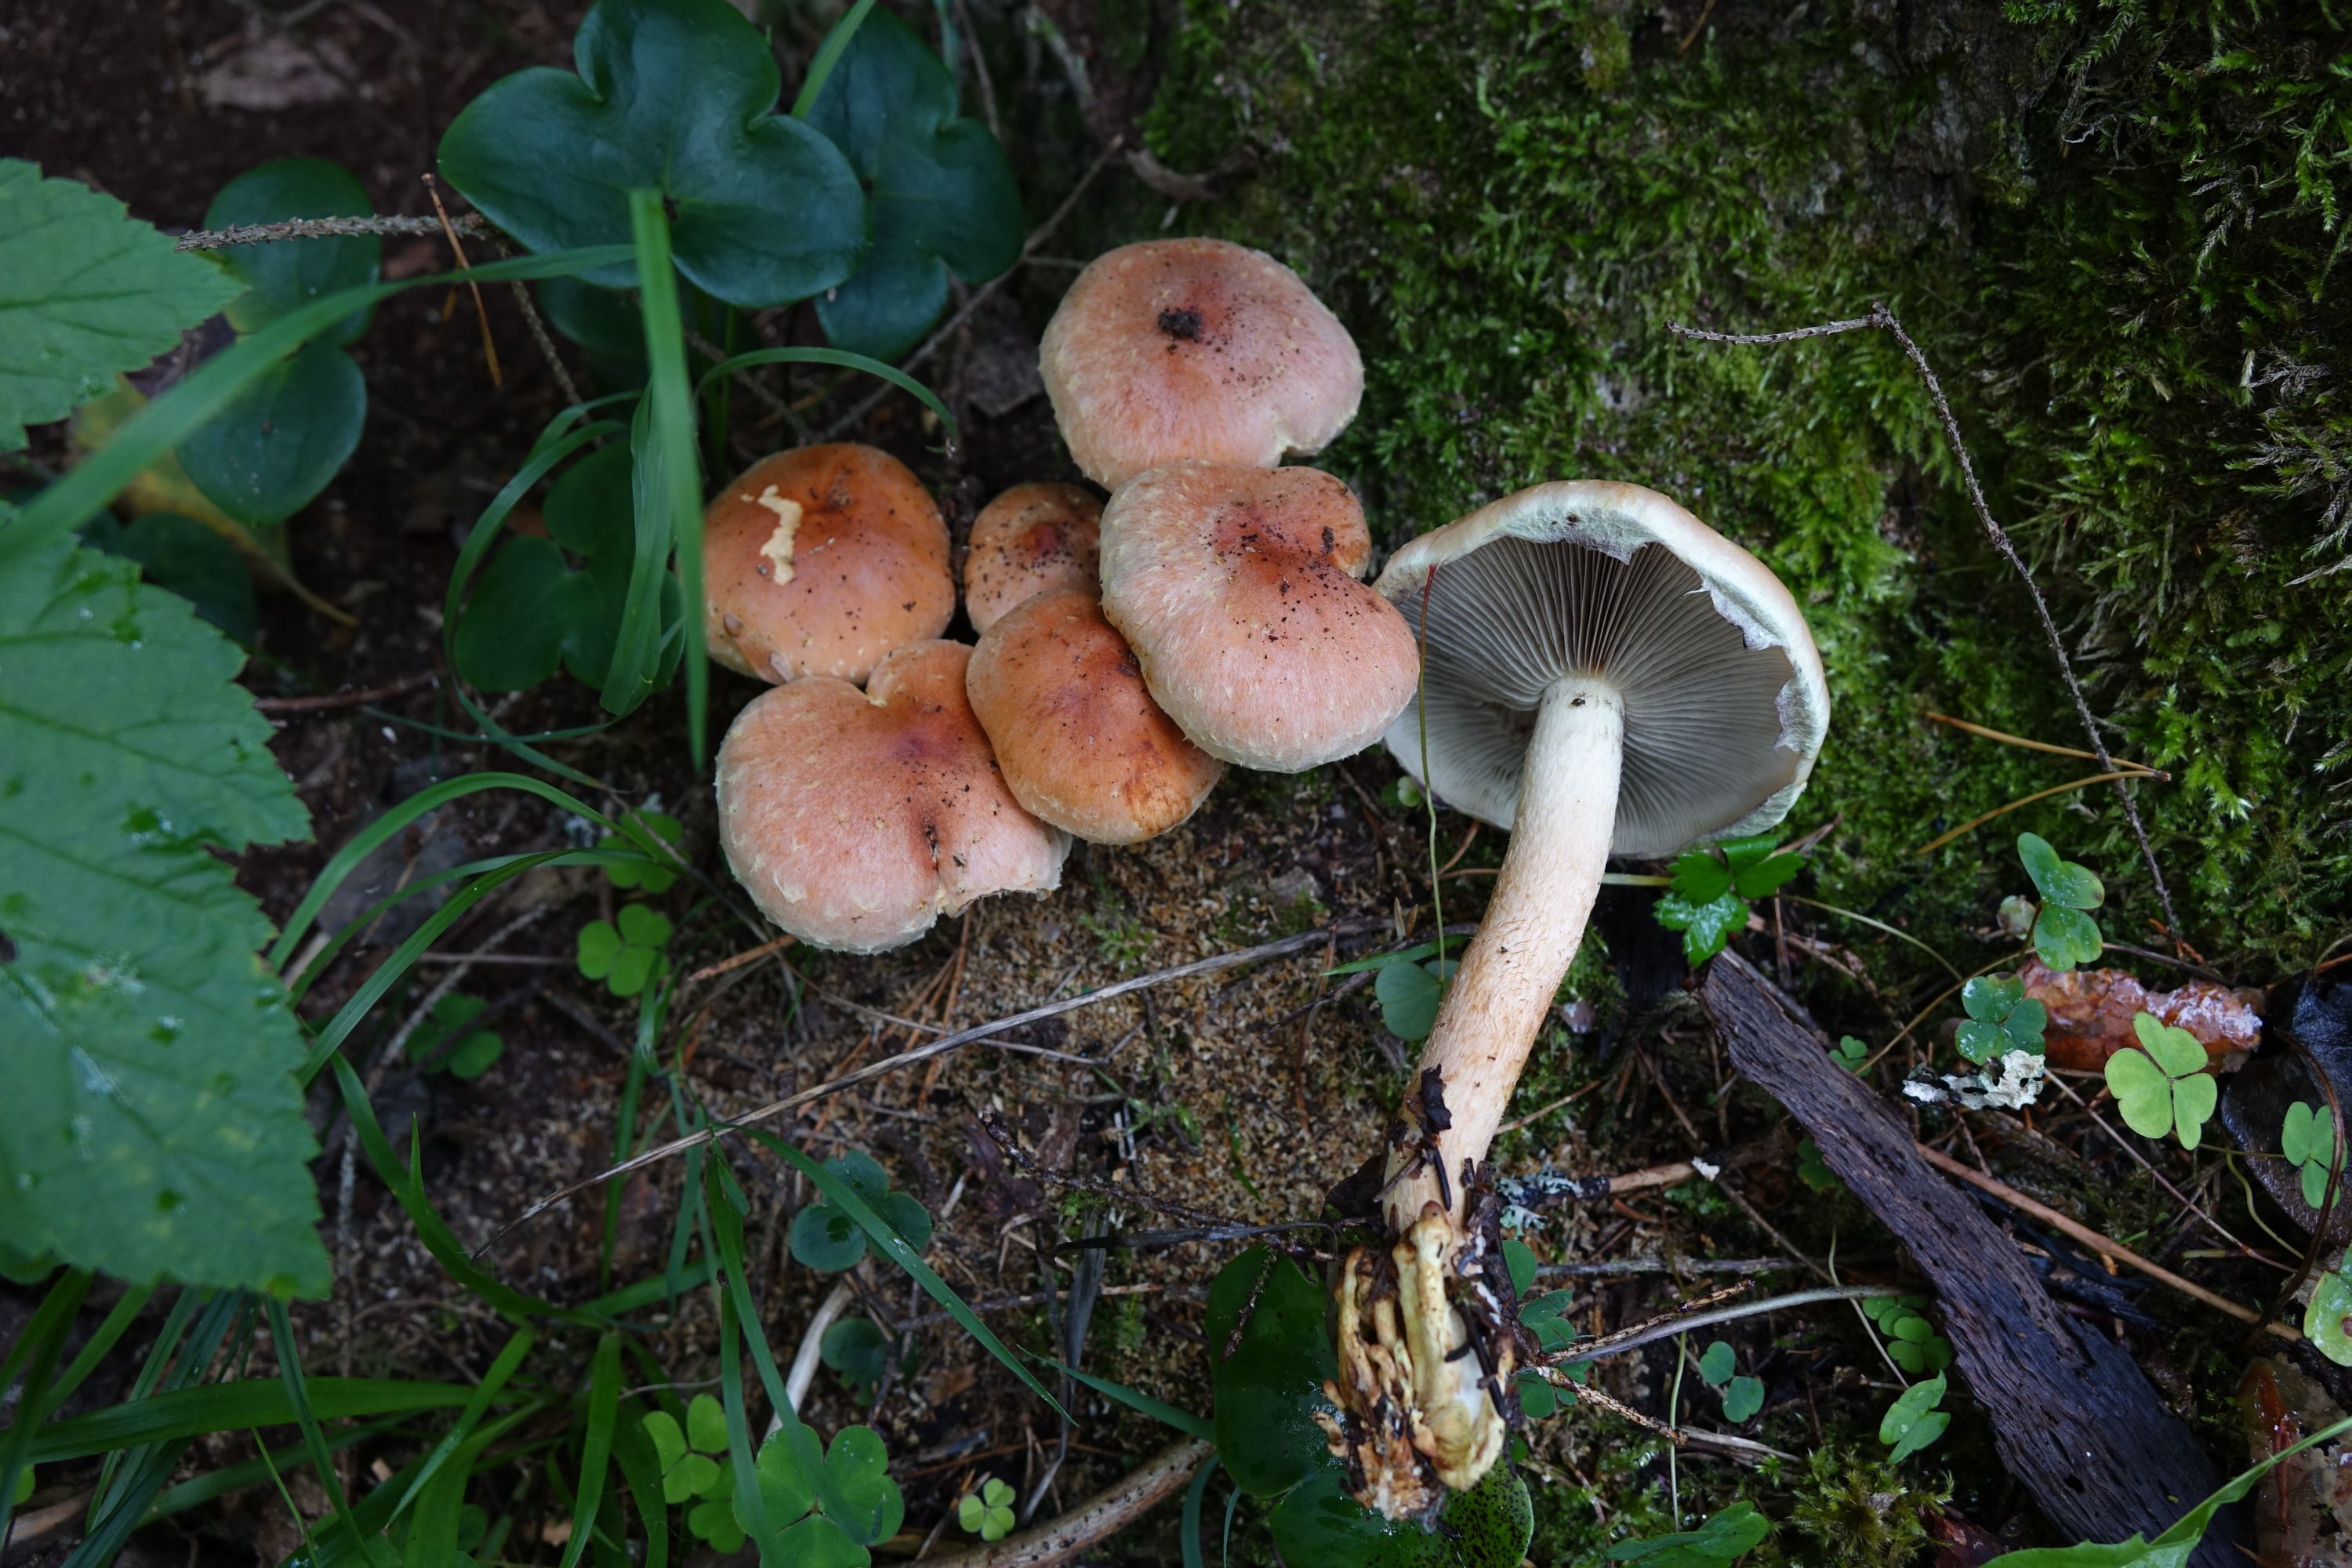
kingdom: Fungi
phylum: Basidiomycota
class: Agaricomycetes
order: Agaricales
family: Strophariaceae
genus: Hypholoma
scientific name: Hypholoma lateritium
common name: Brick caps
